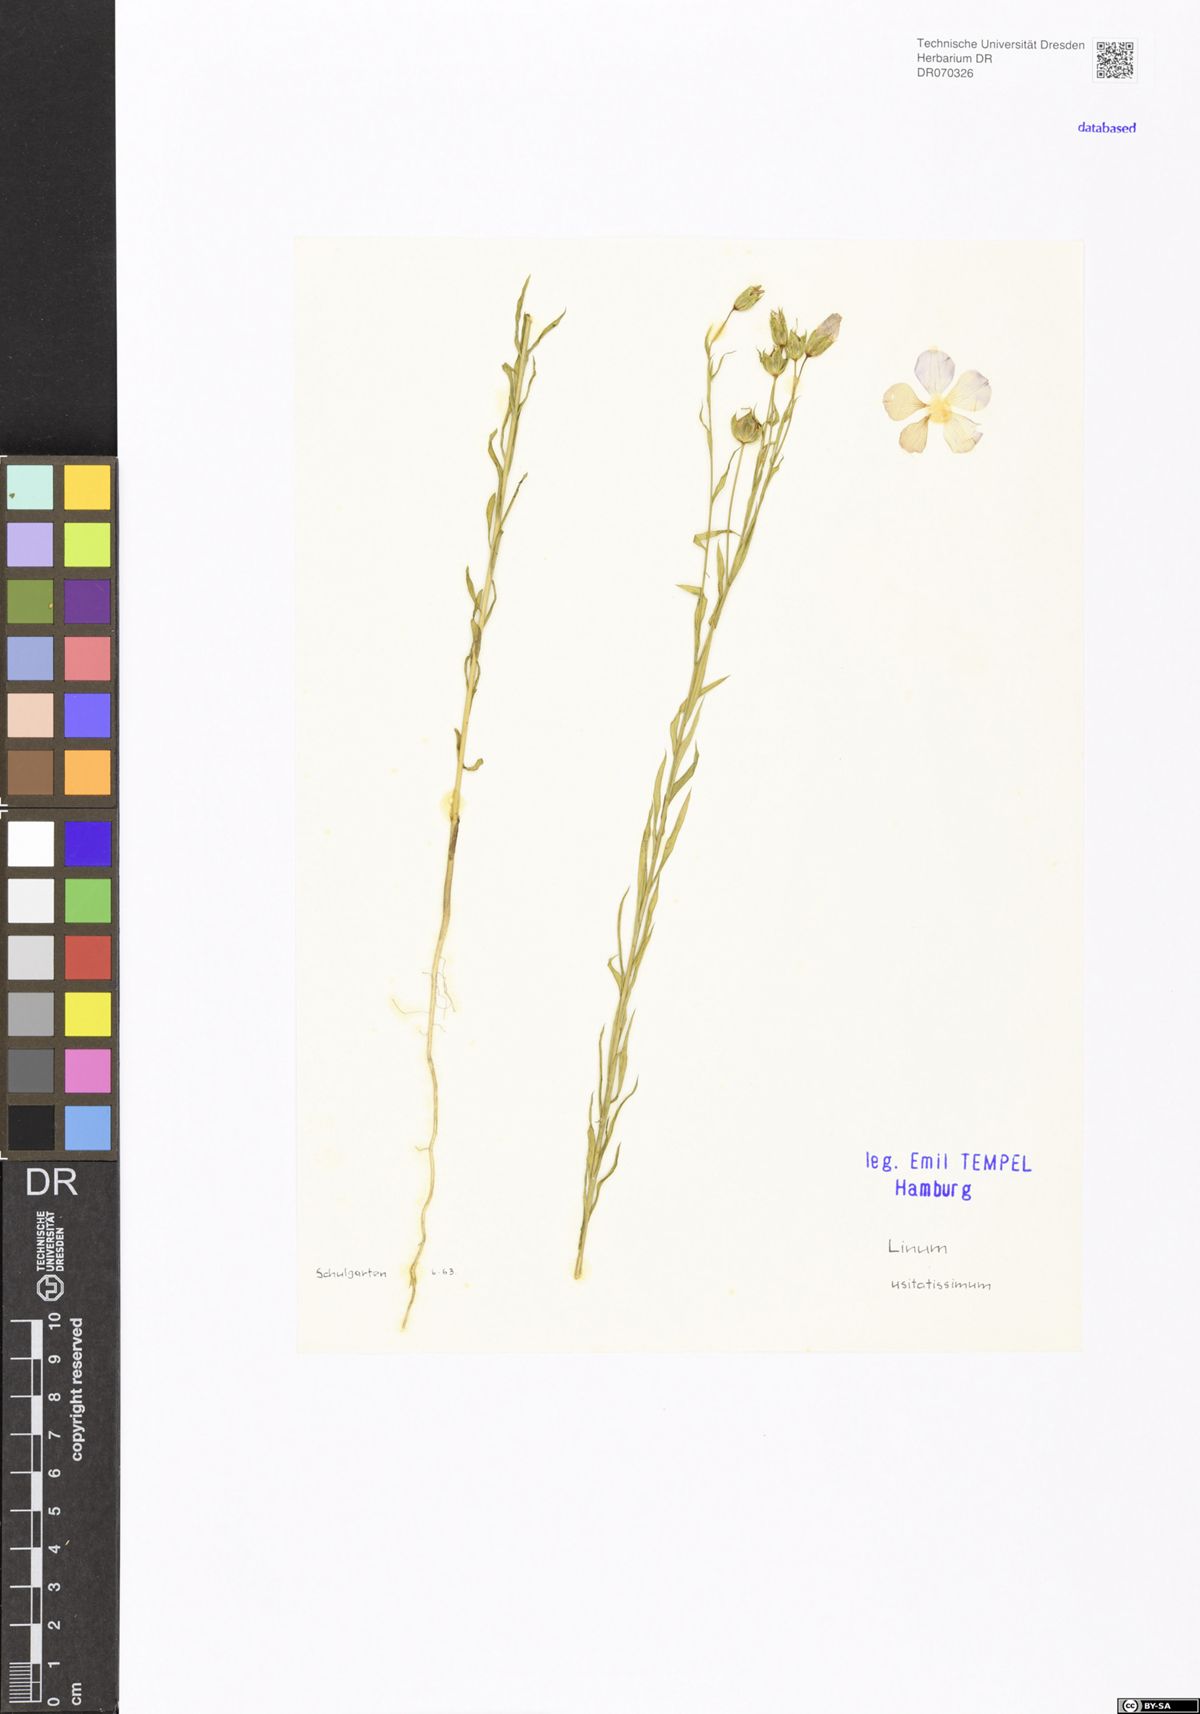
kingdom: Plantae
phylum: Tracheophyta
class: Magnoliopsida
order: Malpighiales
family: Linaceae
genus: Linum
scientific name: Linum usitatissimum
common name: Flax
